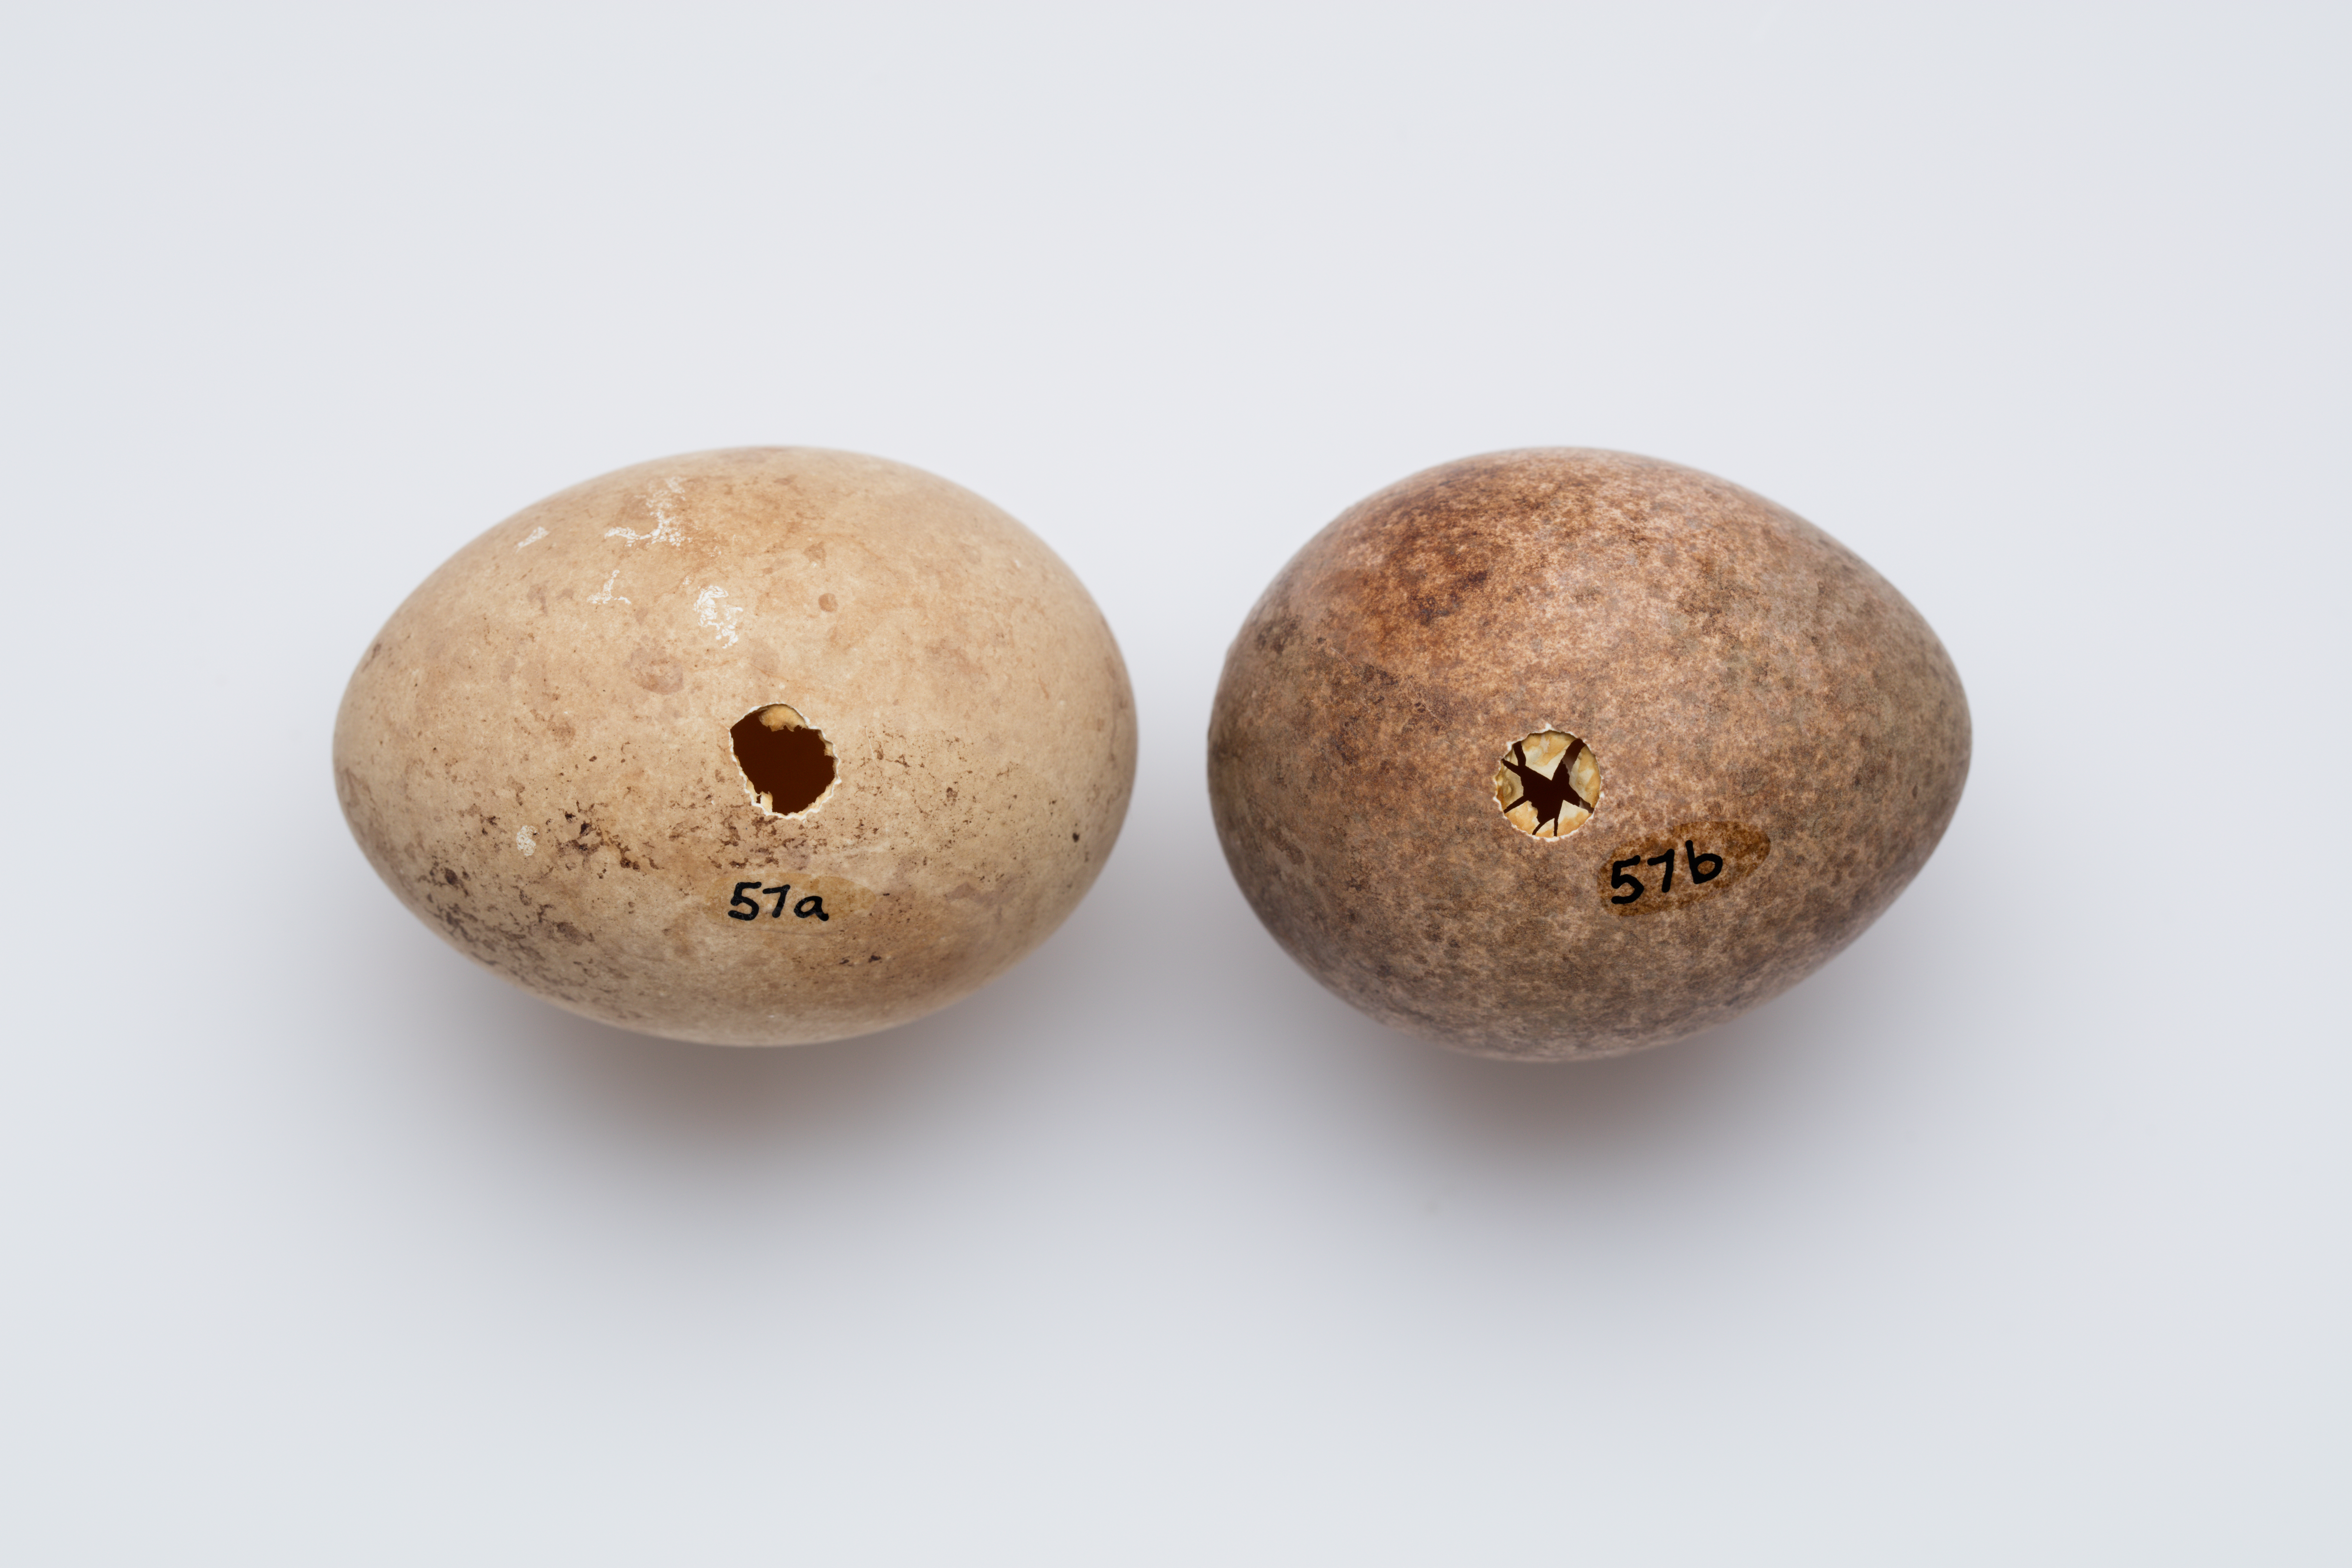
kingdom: Animalia
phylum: Chordata
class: Aves
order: Falconiformes
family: Falconidae
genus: Falco
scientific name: Falco novaeseelandiae
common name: New zealand falcon
